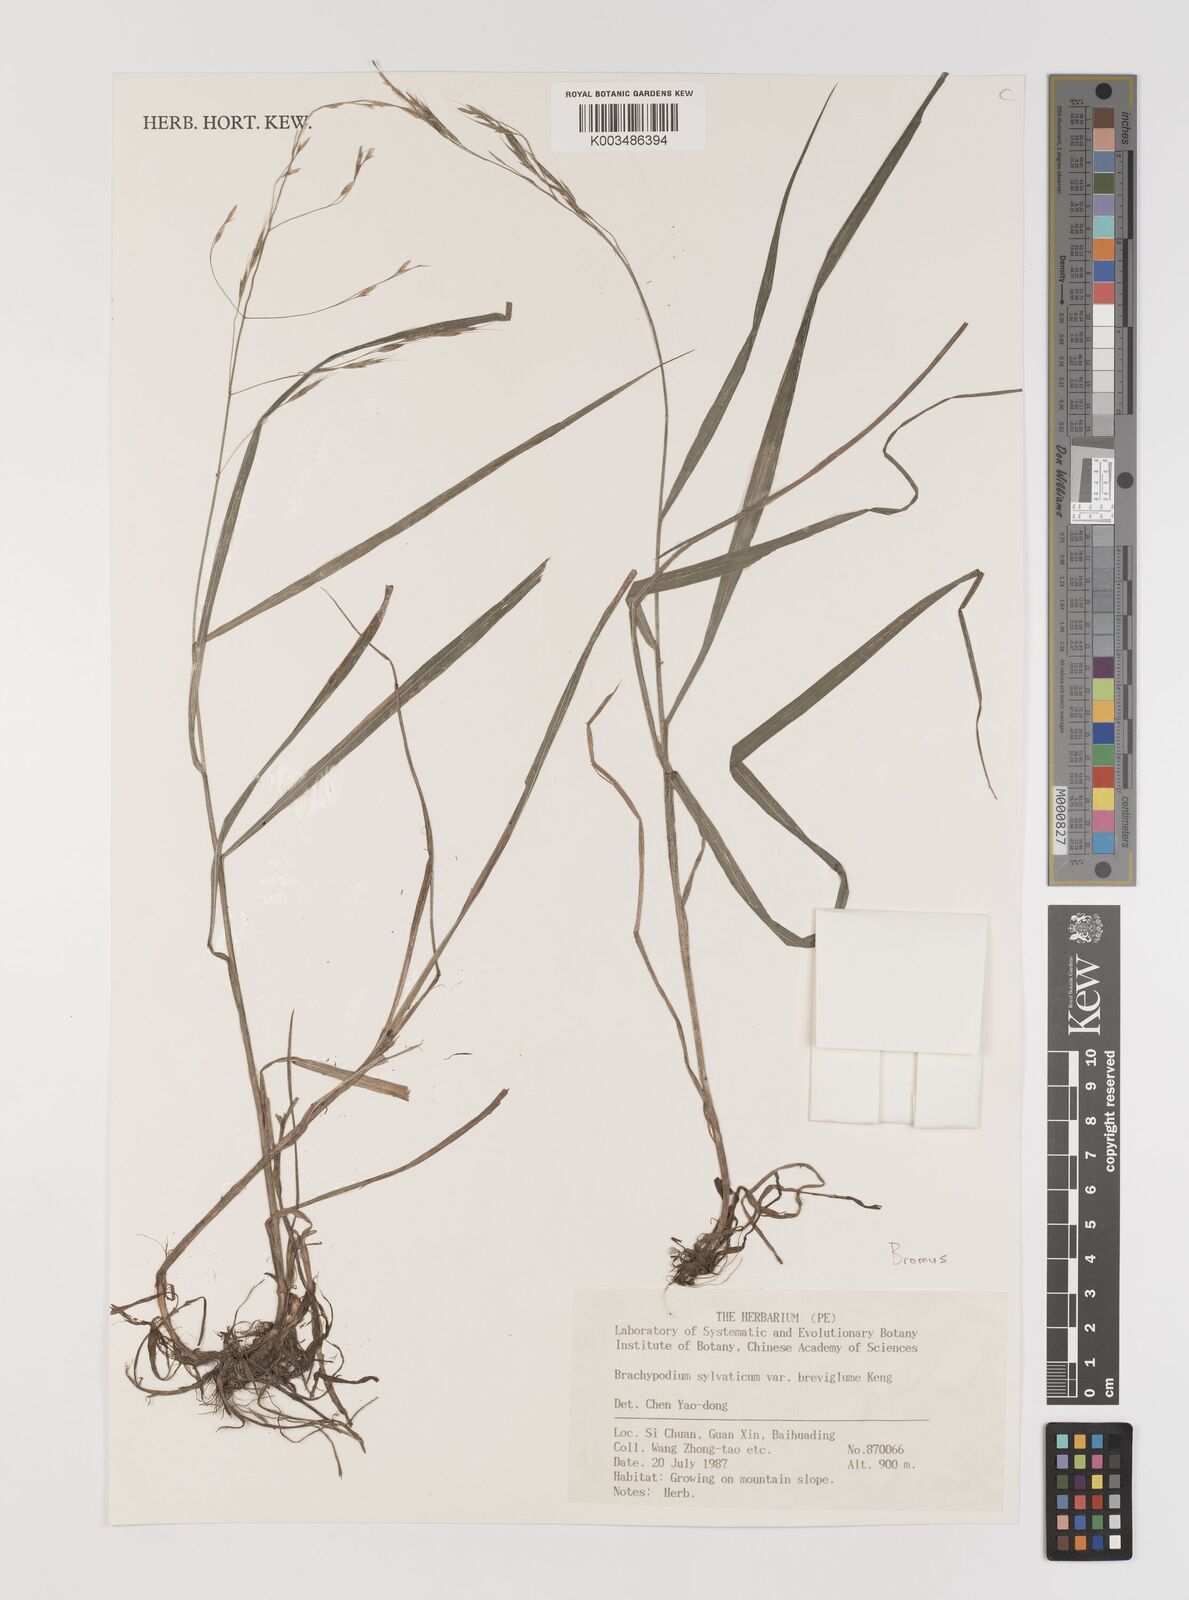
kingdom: Plantae
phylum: Tracheophyta
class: Liliopsida
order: Poales
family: Poaceae
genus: Bromus
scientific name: Bromus
